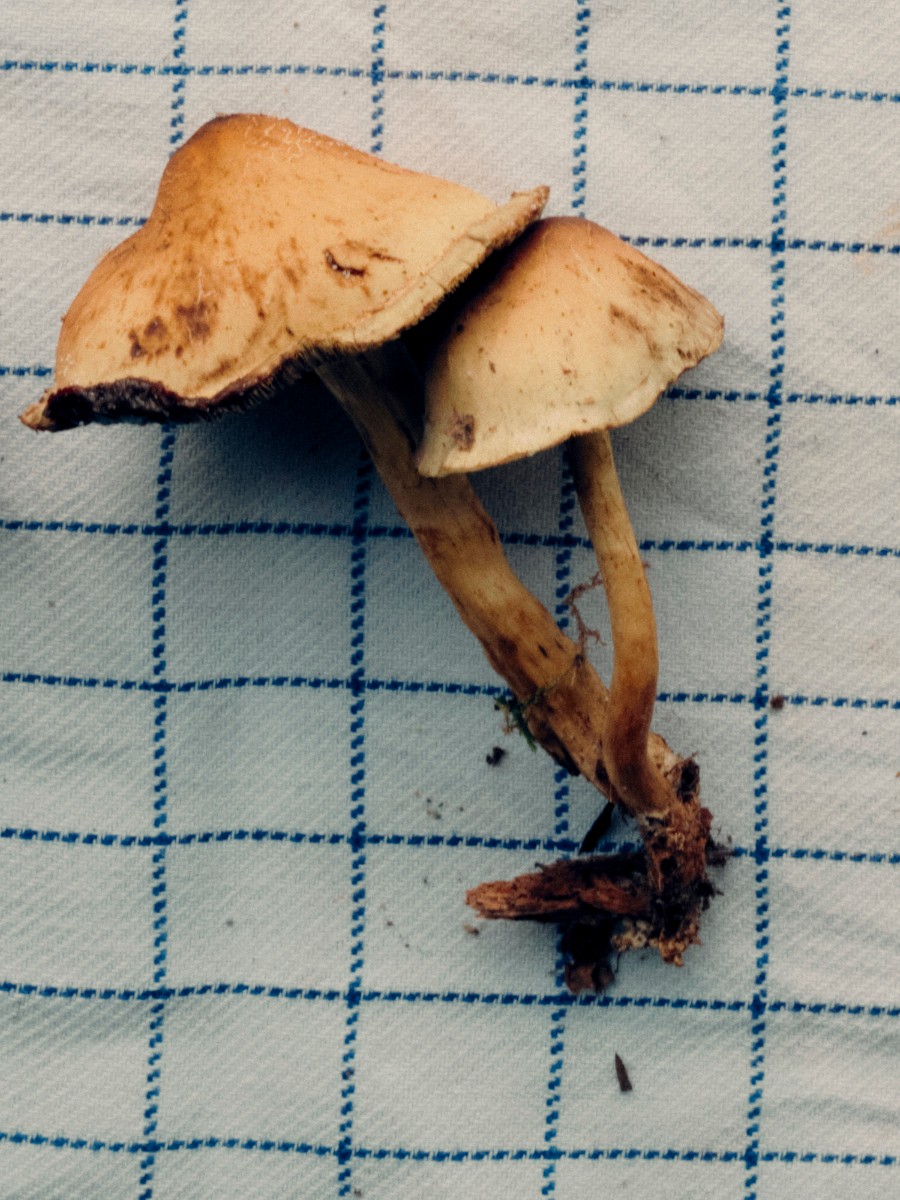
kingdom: Fungi
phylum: Basidiomycota
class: Agaricomycetes
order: Agaricales
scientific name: Agaricales
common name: champignonordenen
